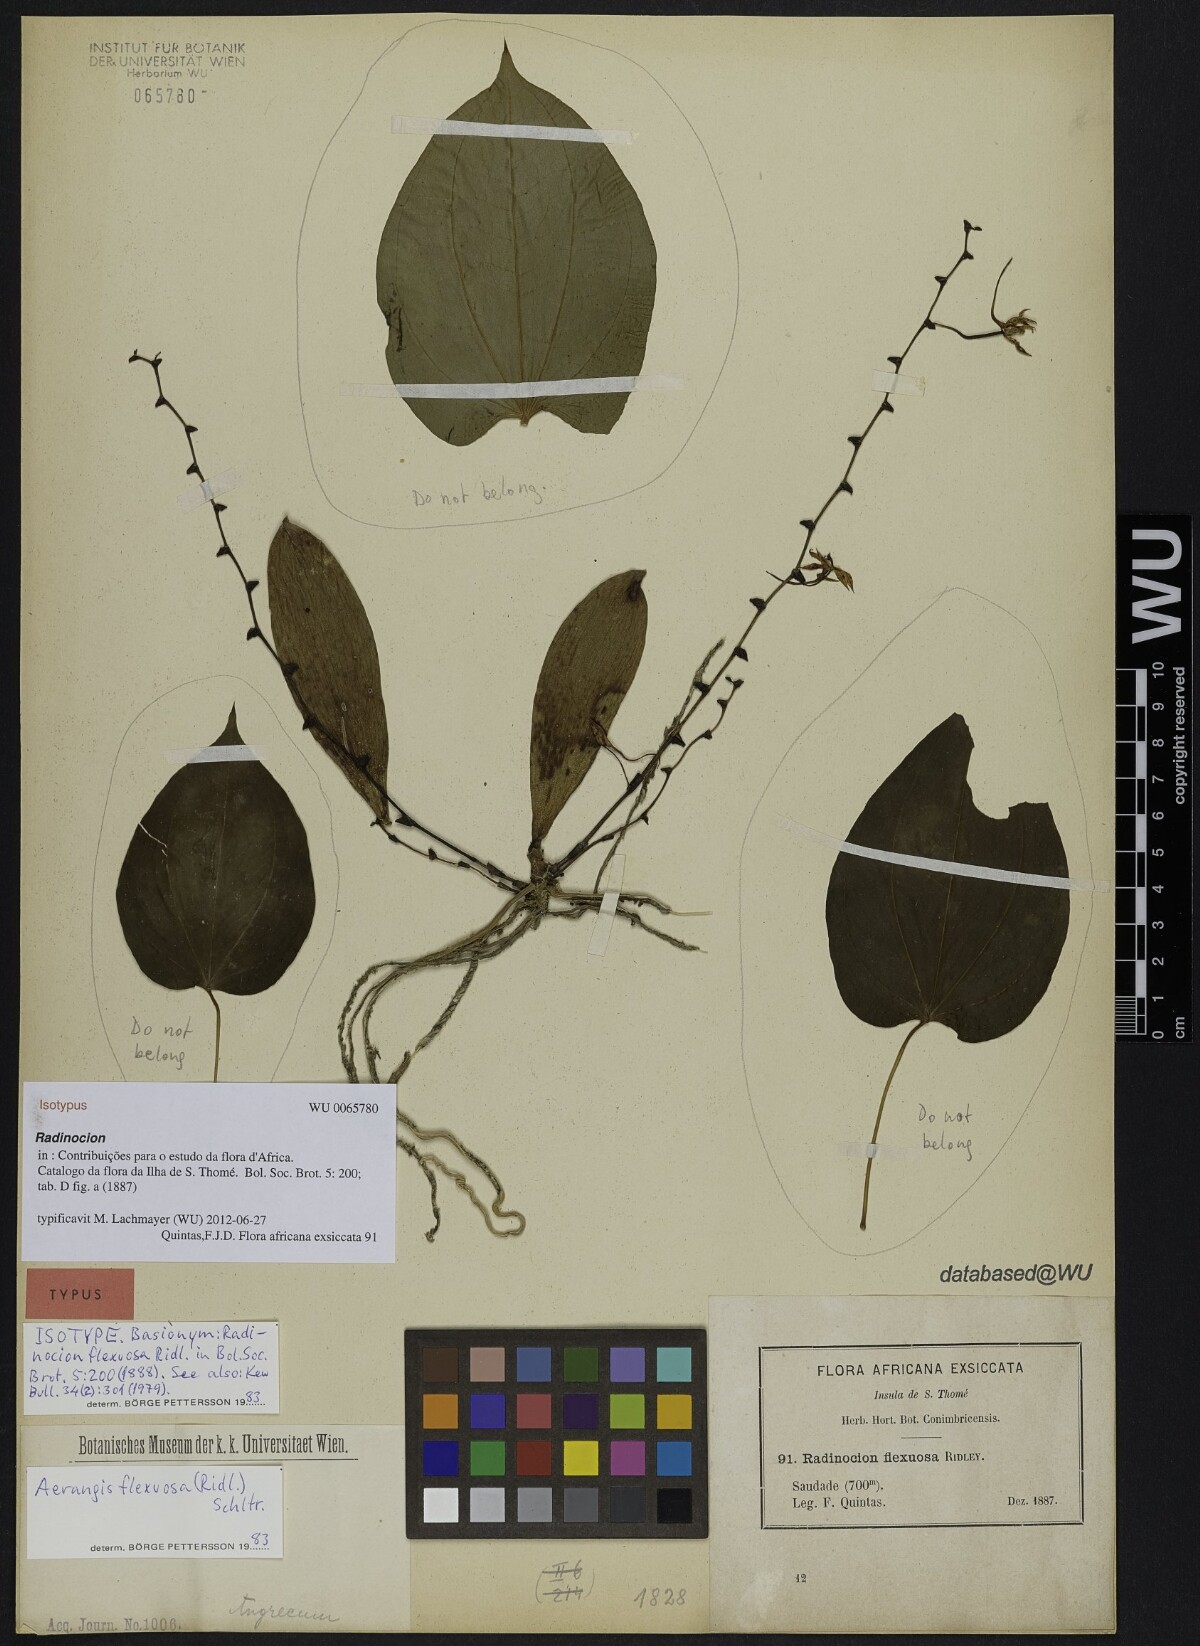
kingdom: Plantae
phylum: Tracheophyta
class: Liliopsida
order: Asparagales
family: Orchidaceae
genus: Aerangis
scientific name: Aerangis flexuosa
